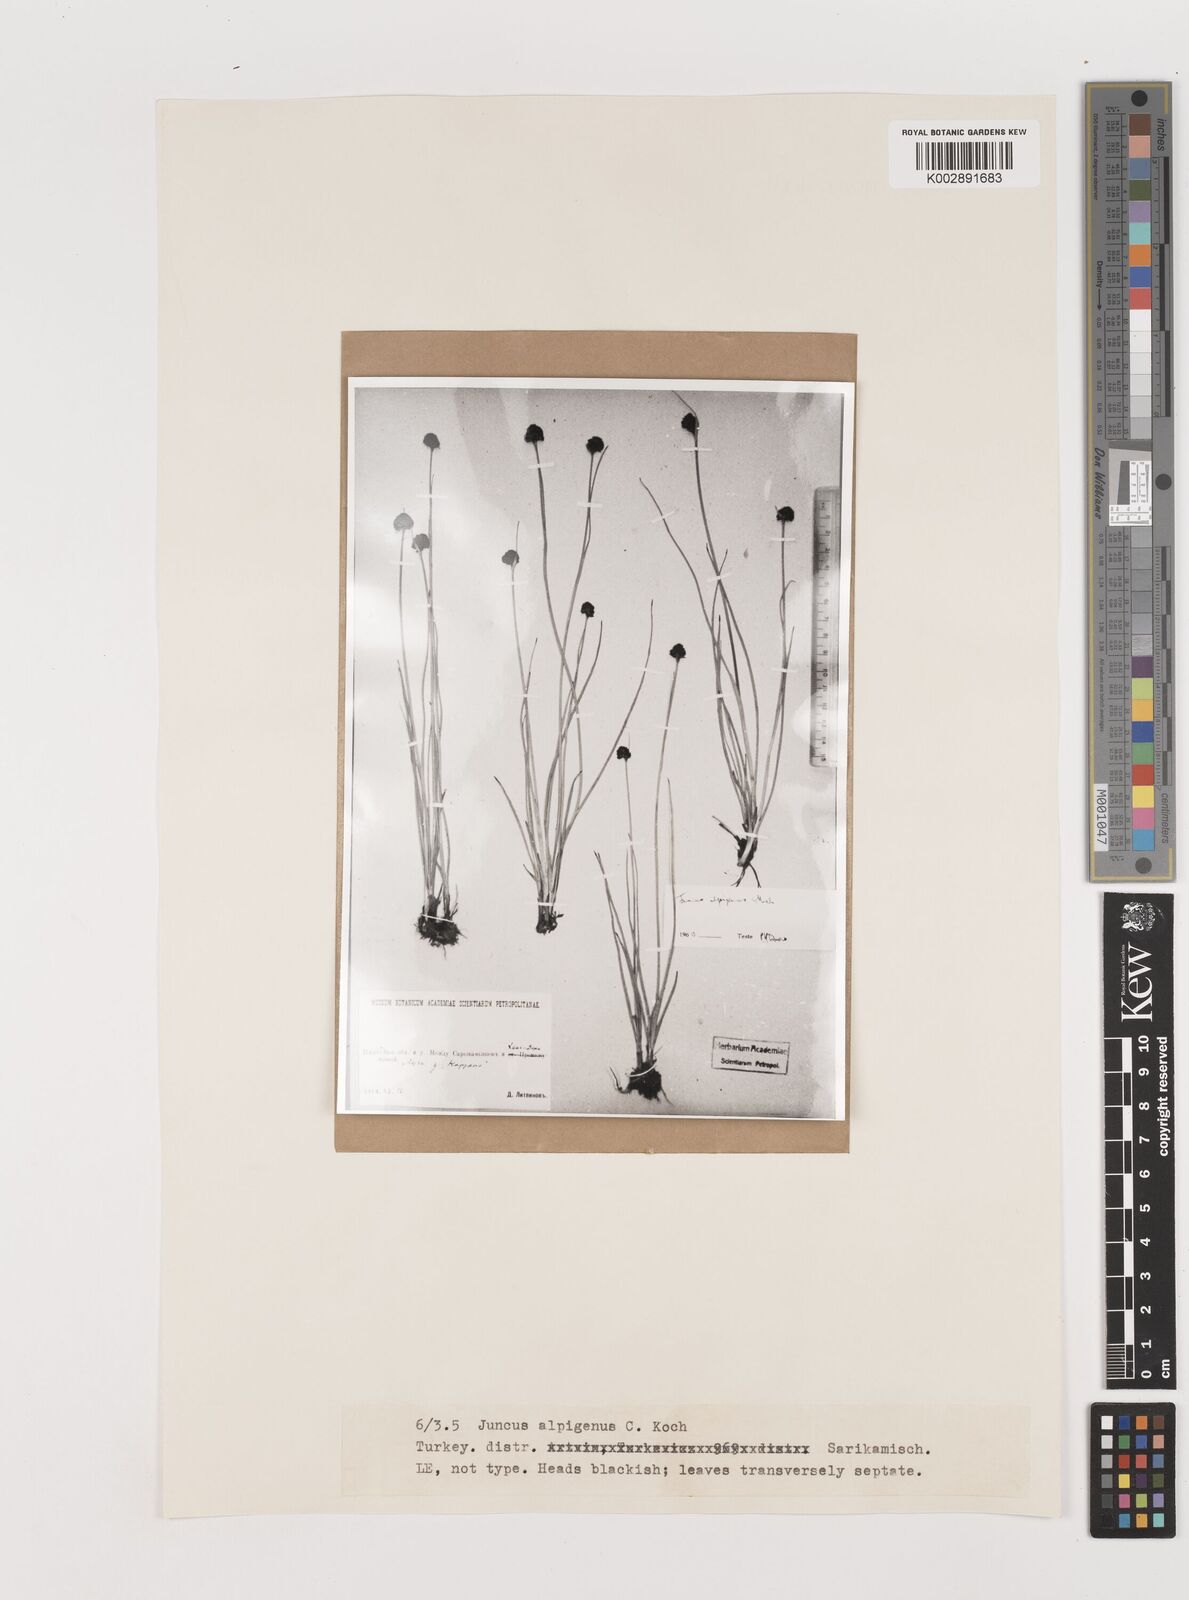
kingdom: Plantae
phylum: Tracheophyta
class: Liliopsida
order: Poales
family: Juncaceae
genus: Juncus
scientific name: Juncus alpigenus
